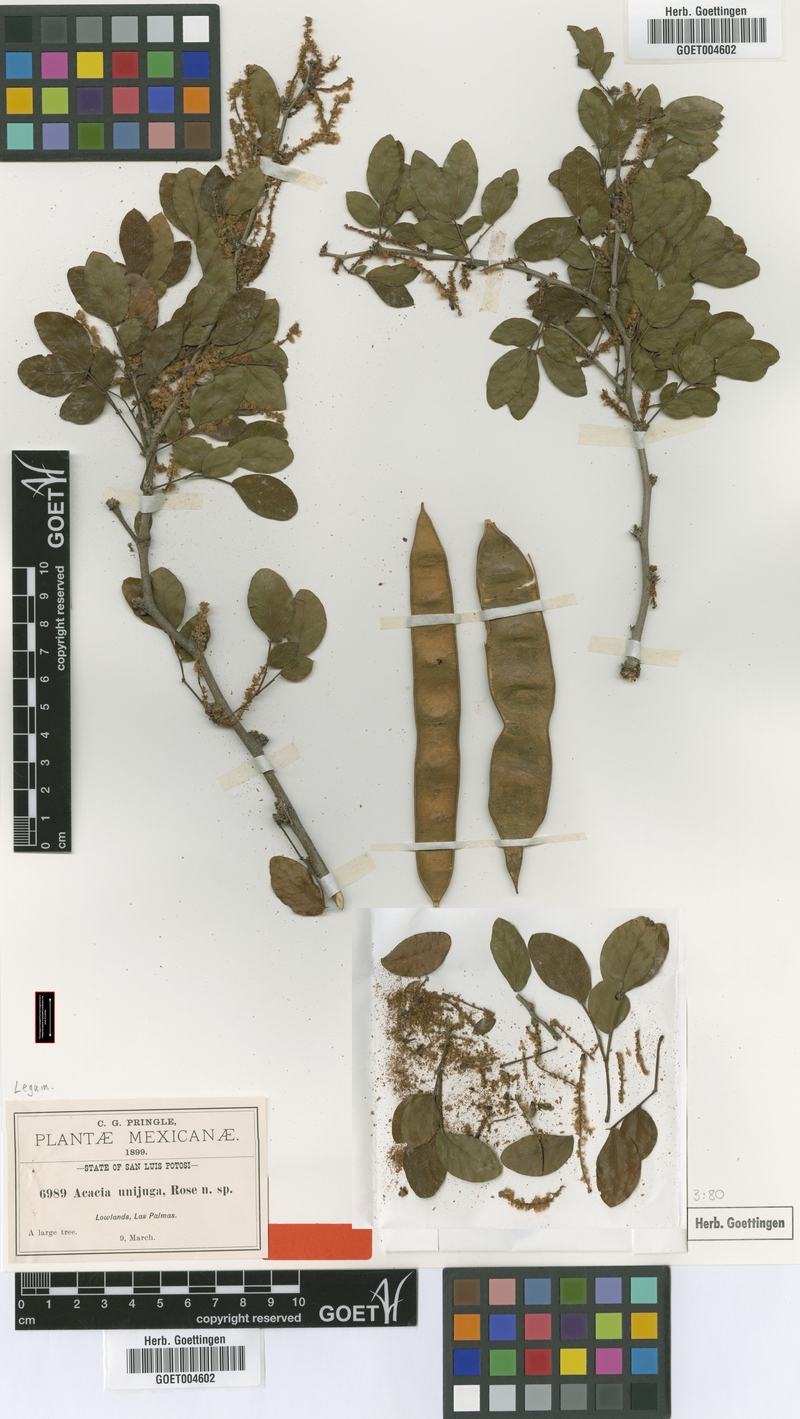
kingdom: Plantae
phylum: Tracheophyta
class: Magnoliopsida
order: Fabales
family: Fabaceae
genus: Vachellia
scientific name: Vachellia pringlei
